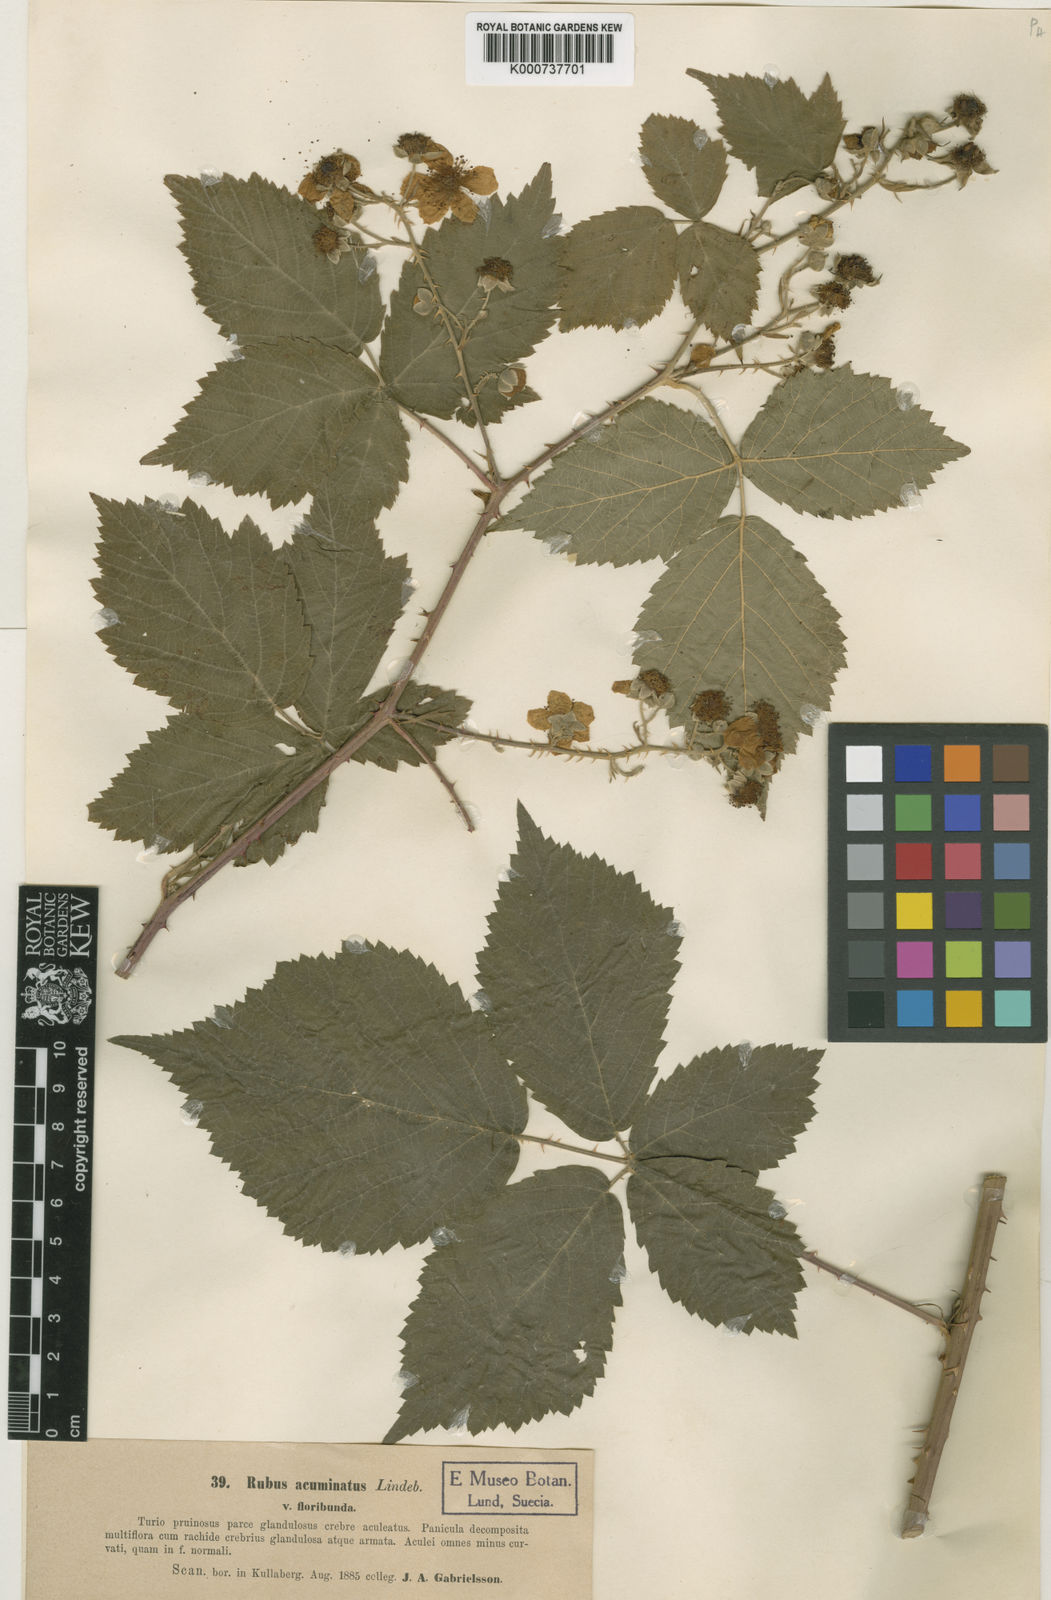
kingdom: Plantae
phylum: Tracheophyta
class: Magnoliopsida
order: Rosales
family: Rosaceae
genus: Rubus
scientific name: Rubus
